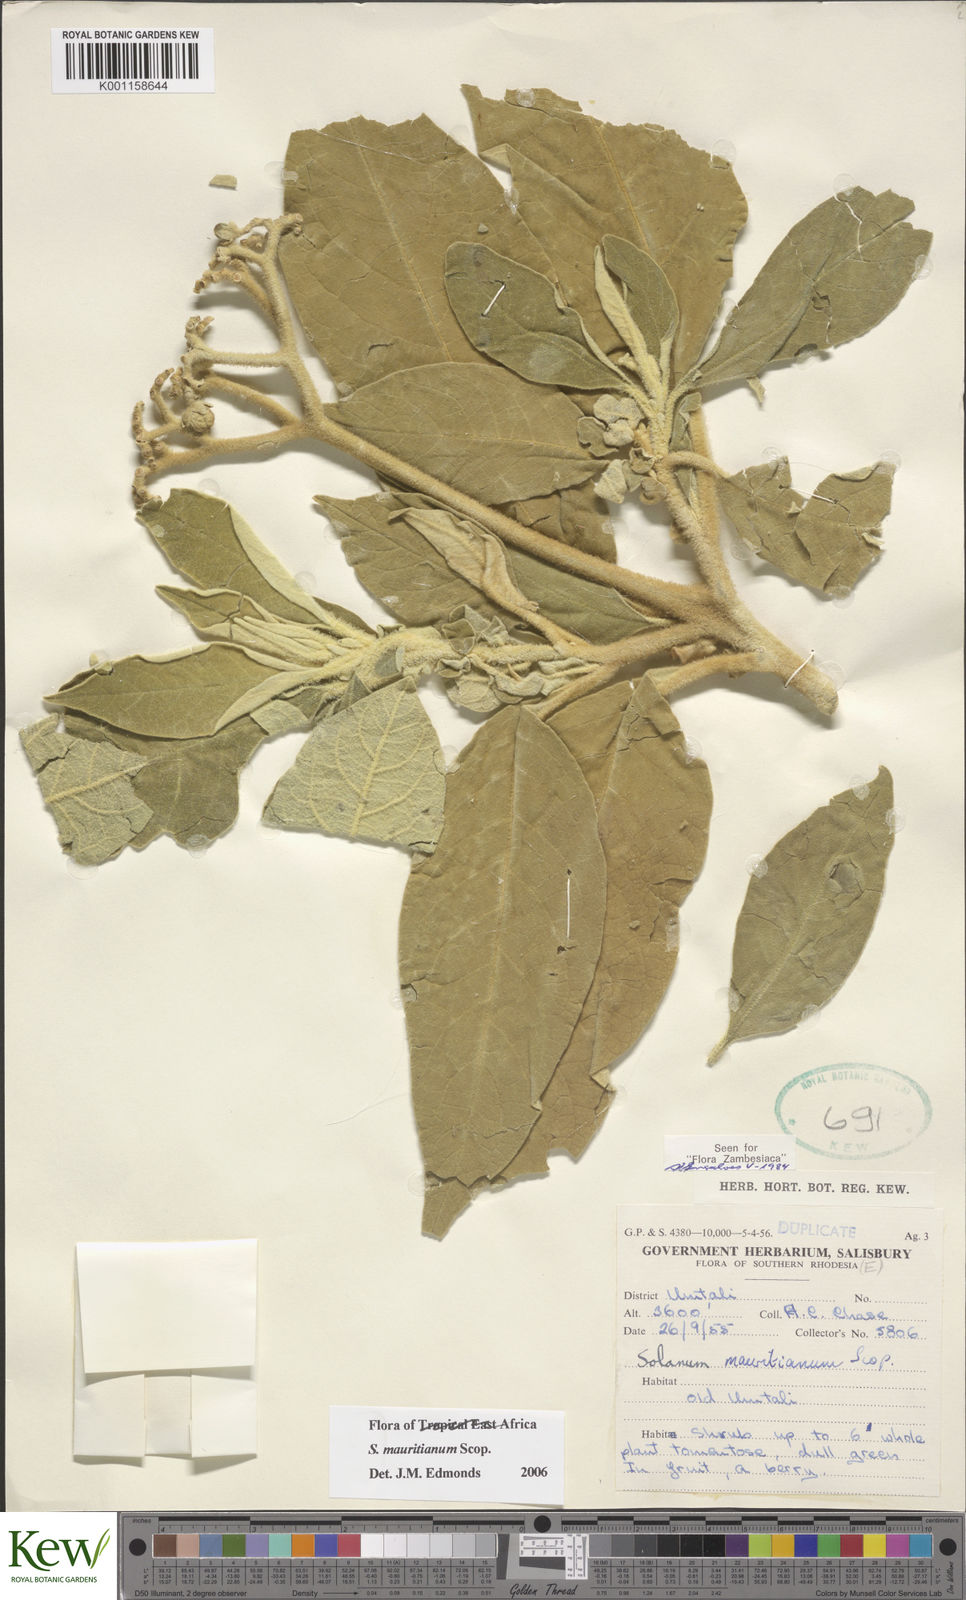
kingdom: Plantae
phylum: Tracheophyta
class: Magnoliopsida
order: Solanales
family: Solanaceae
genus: Solanum
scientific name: Solanum mauritianum
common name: Earleaf nightshade
